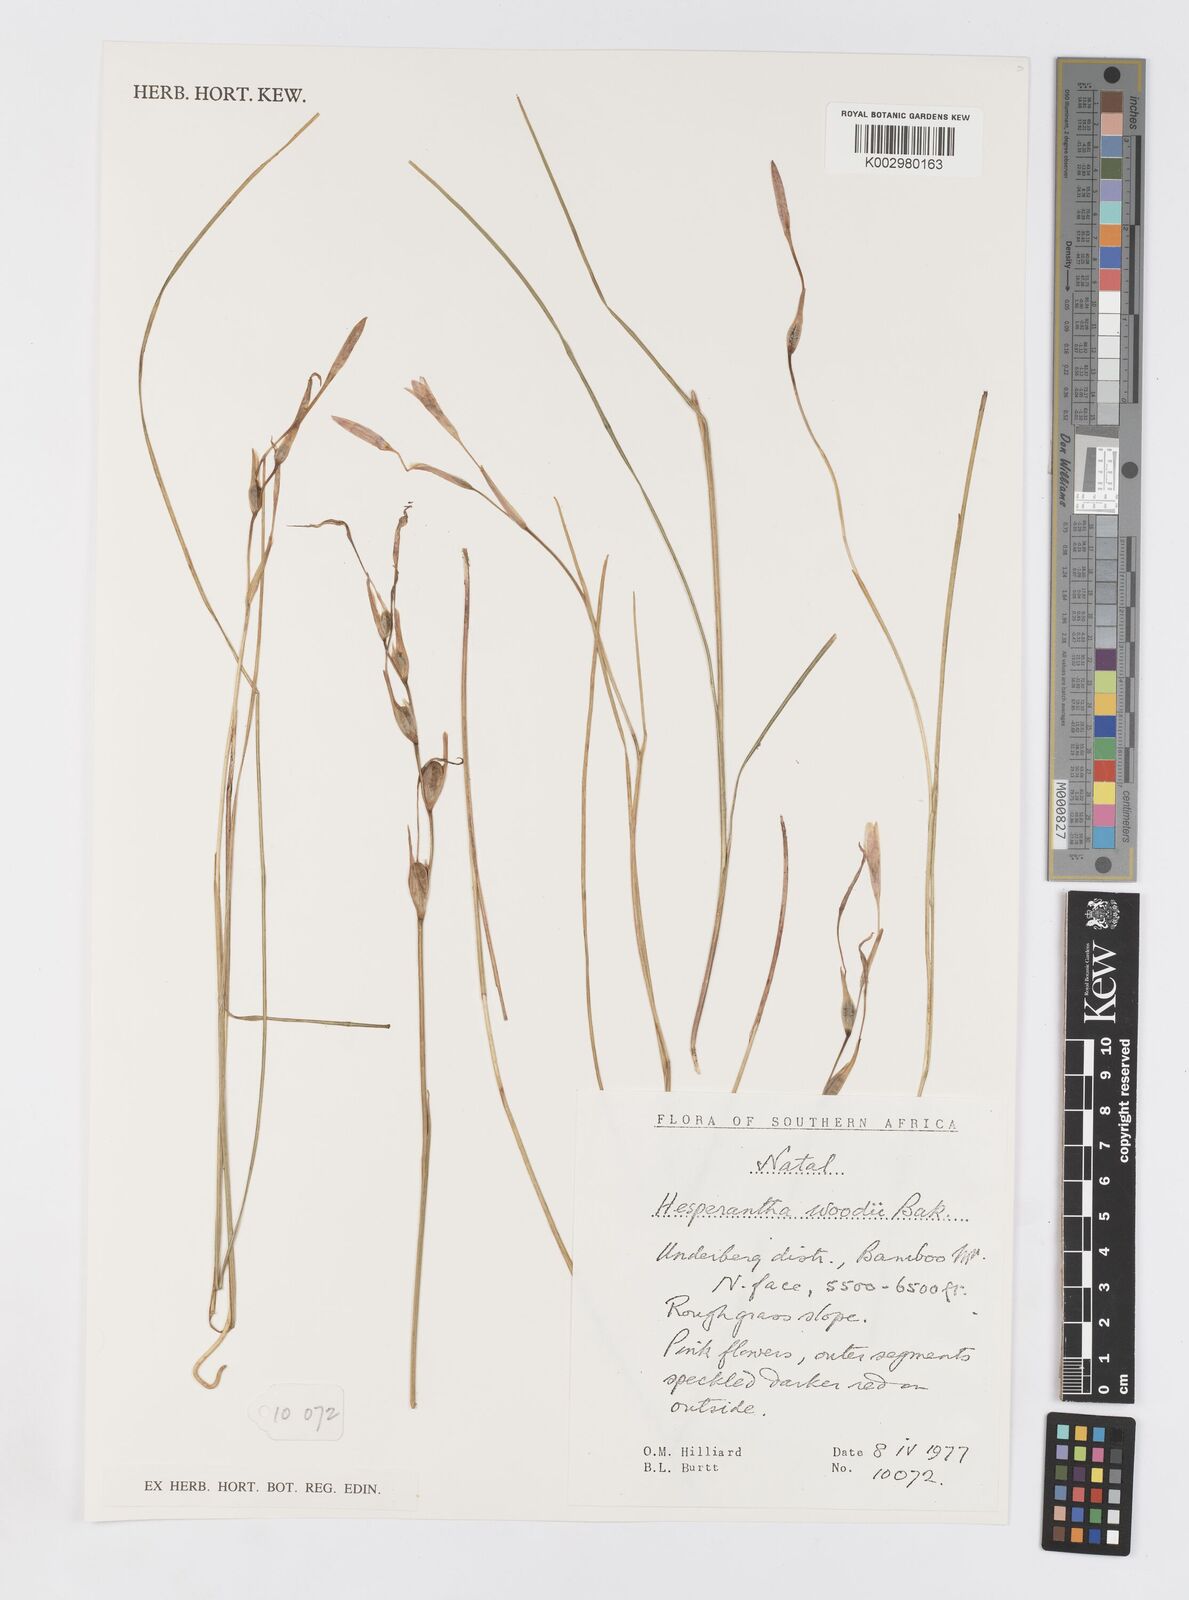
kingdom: Plantae
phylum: Tracheophyta
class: Liliopsida
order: Asparagales
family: Iridaceae
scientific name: Iridaceae
